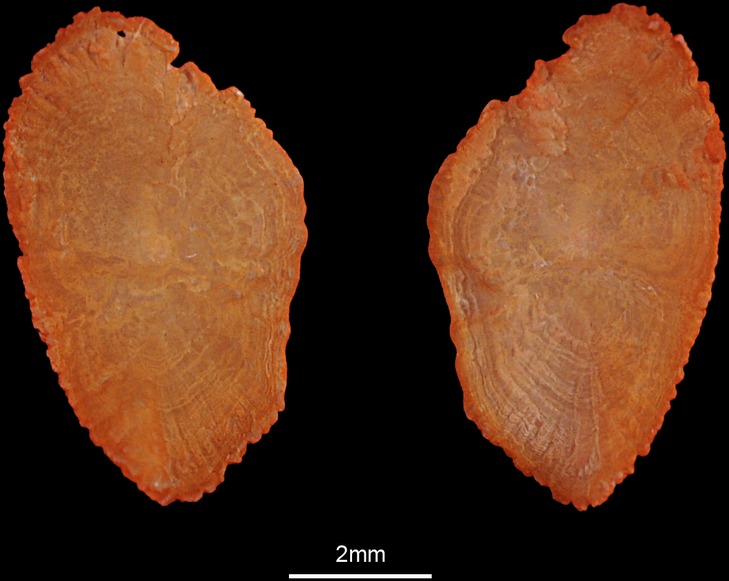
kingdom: Animalia
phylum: Chordata
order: Perciformes
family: Sparidae
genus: Acanthopagrus
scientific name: Acanthopagrus bifasciatus
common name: Twobar seabream
